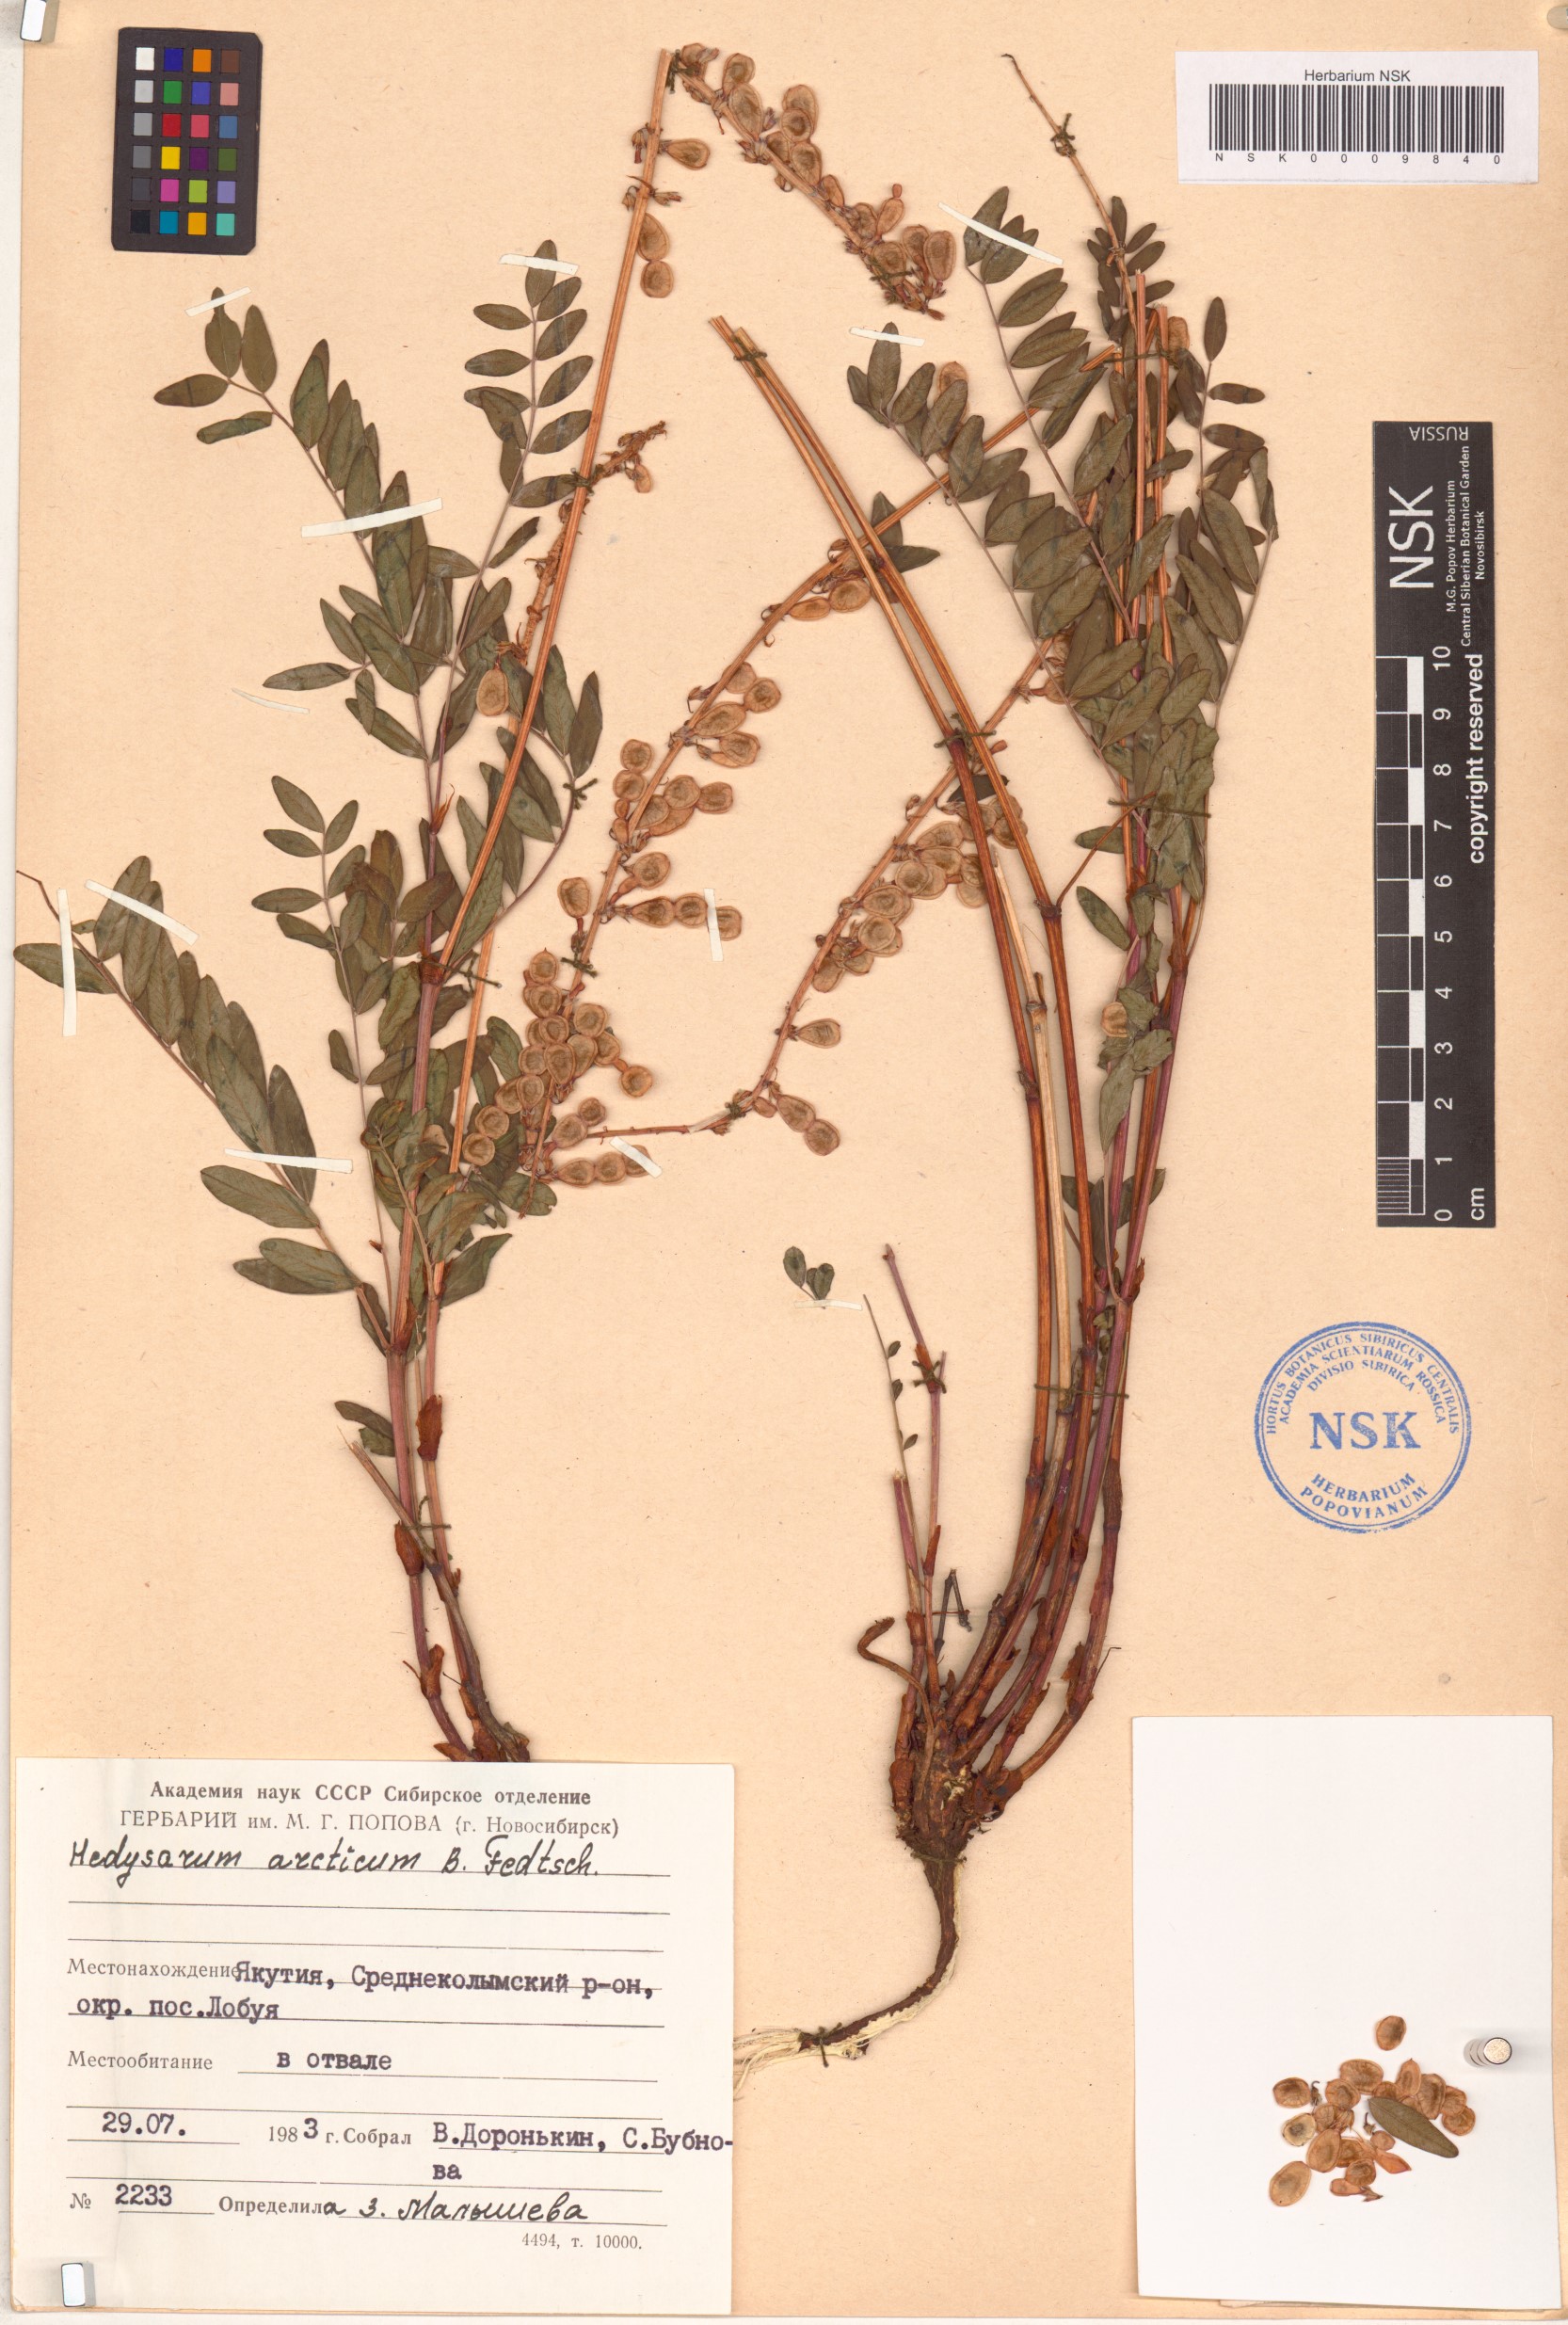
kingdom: Plantae
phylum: Tracheophyta
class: Magnoliopsida
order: Fabales
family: Fabaceae
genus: Hedysarum
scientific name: Hedysarum hedysaroides
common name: Alpine french-honeysuckle
